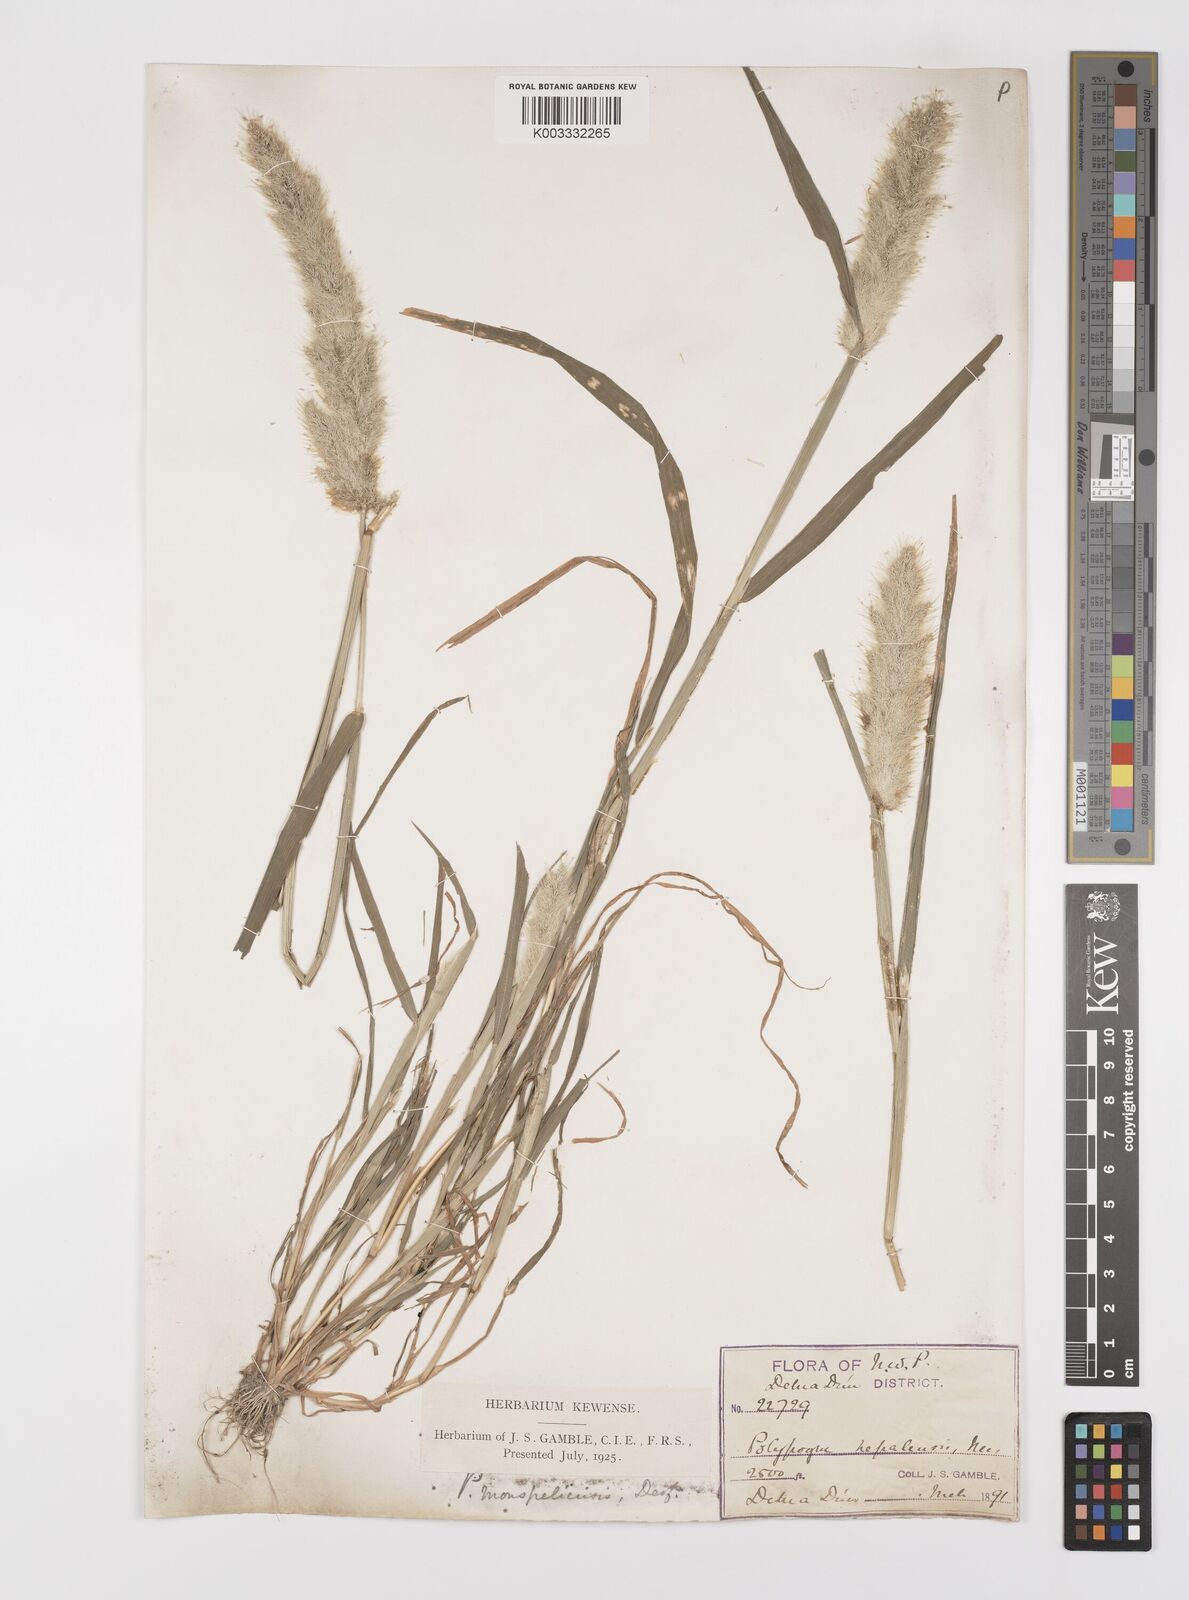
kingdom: Plantae
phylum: Tracheophyta
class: Liliopsida
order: Poales
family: Poaceae
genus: Polypogon
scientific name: Polypogon monspeliensis
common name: Annual rabbitsfoot grass
